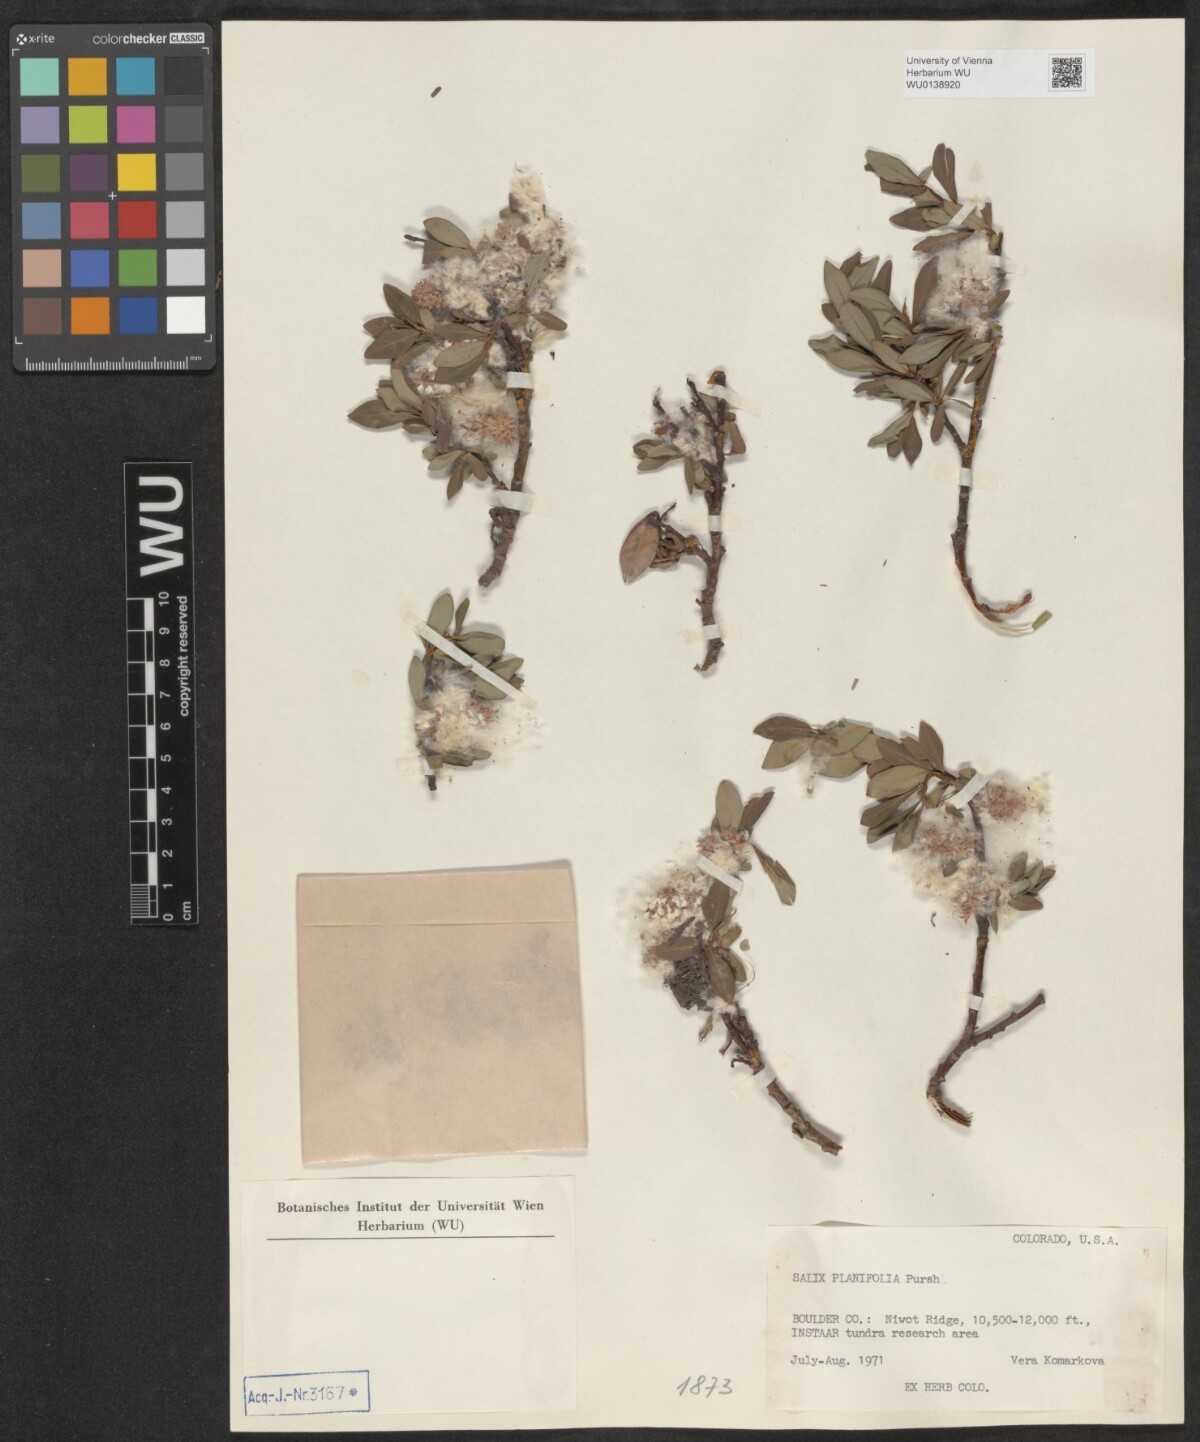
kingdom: Plantae
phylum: Tracheophyta
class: Magnoliopsida
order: Malpighiales
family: Salicaceae
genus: Salix
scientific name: Salix planifolia
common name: Mountain willow
